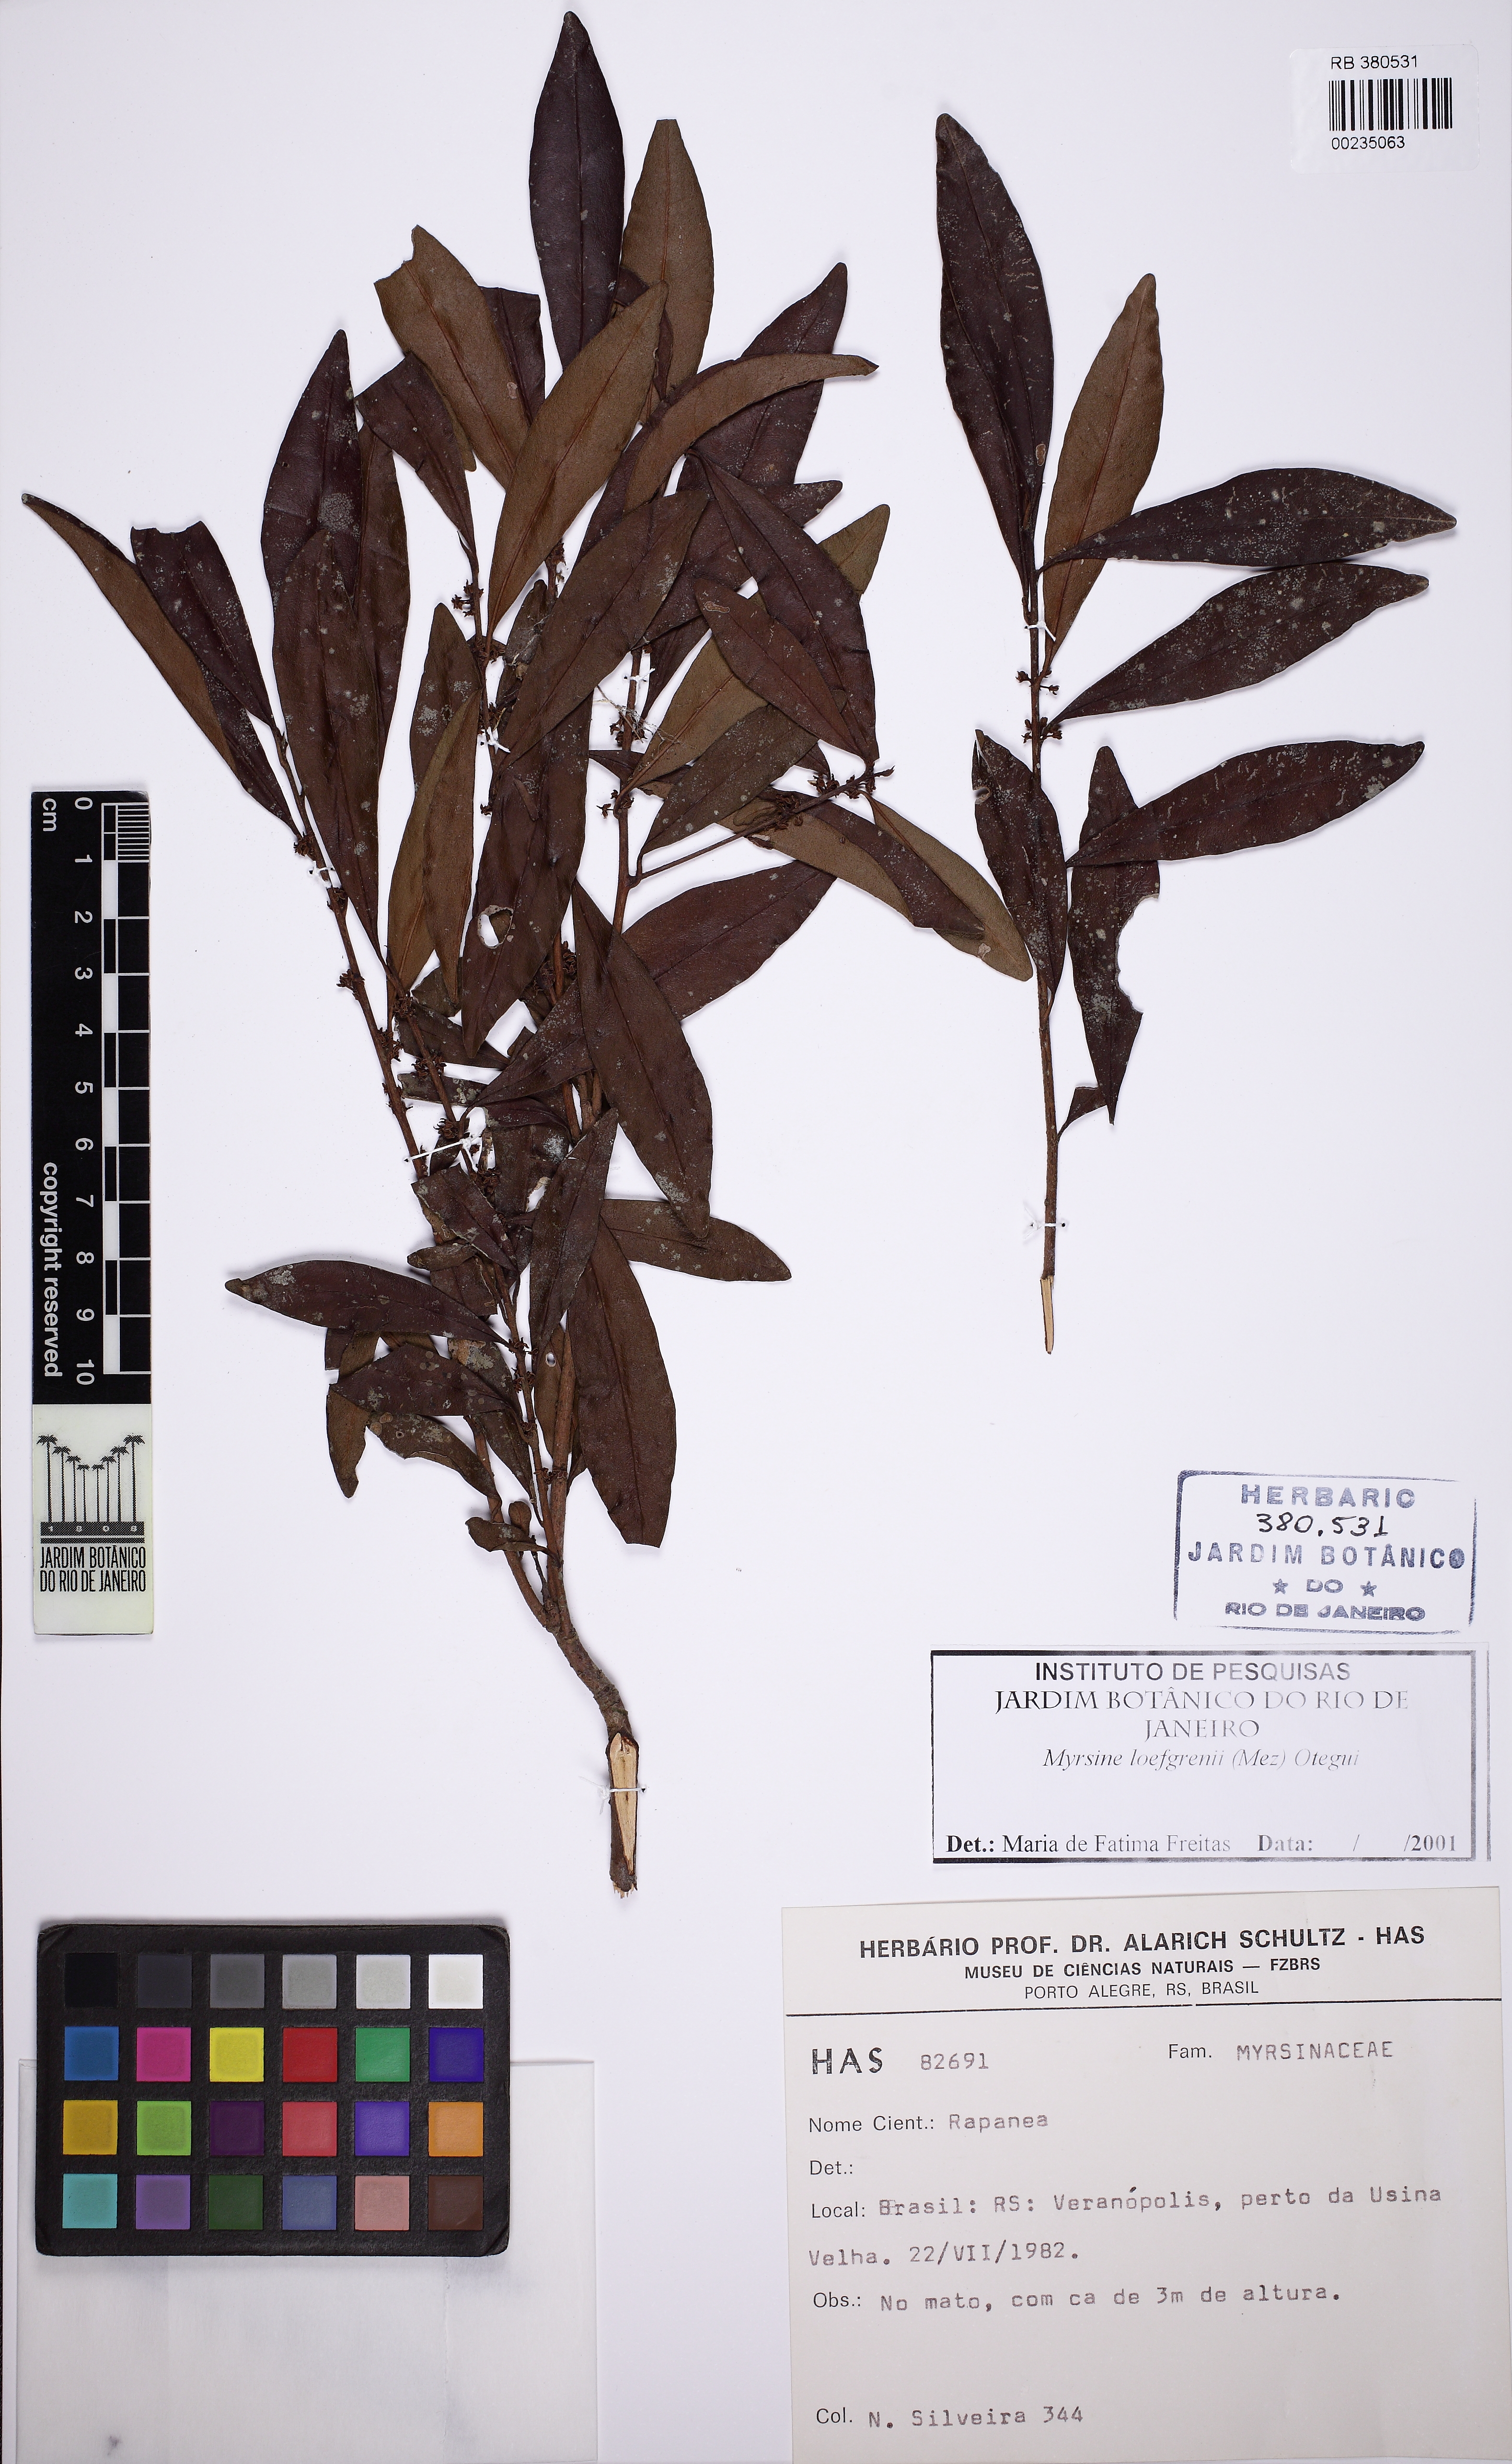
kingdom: Plantae
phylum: Tracheophyta
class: Magnoliopsida
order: Ericales
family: Primulaceae
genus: Myrsine
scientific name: Myrsine loefgrenii
